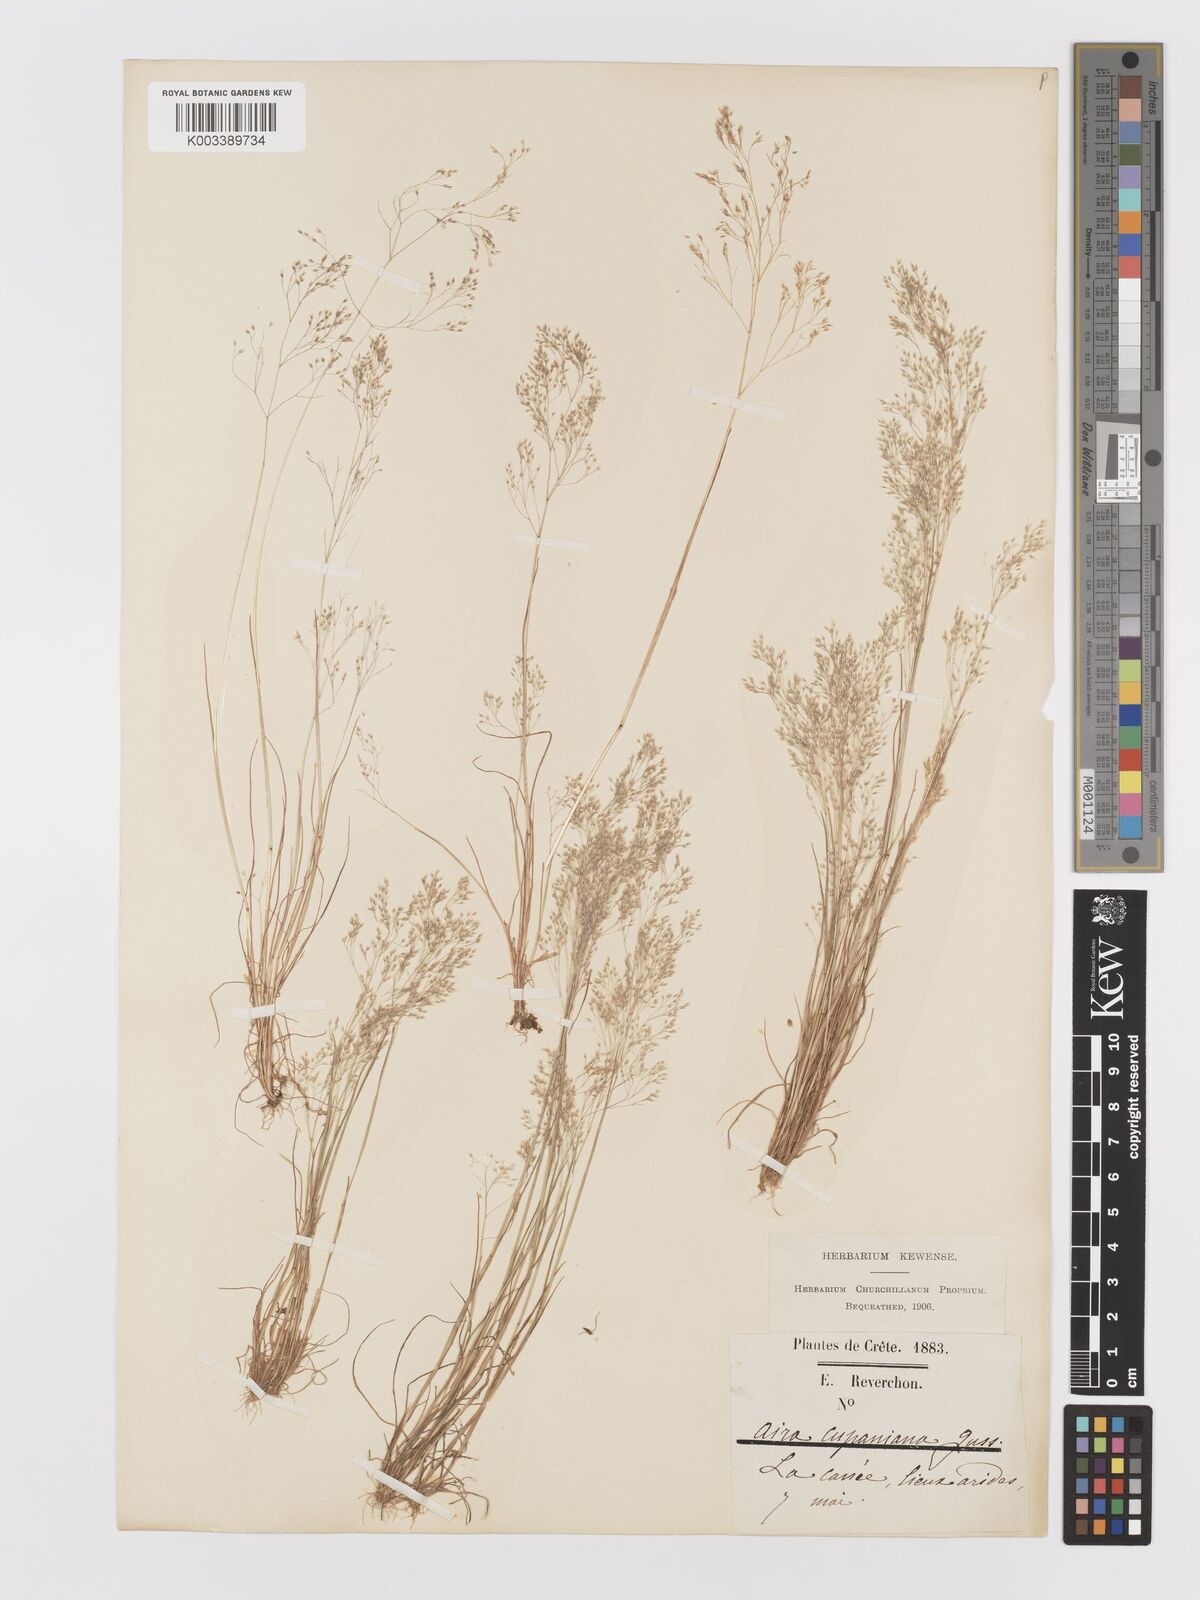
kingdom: Plantae
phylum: Tracheophyta
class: Liliopsida
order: Poales
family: Poaceae
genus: Aira
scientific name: Aira caryophyllea
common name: Silver hairgrass
